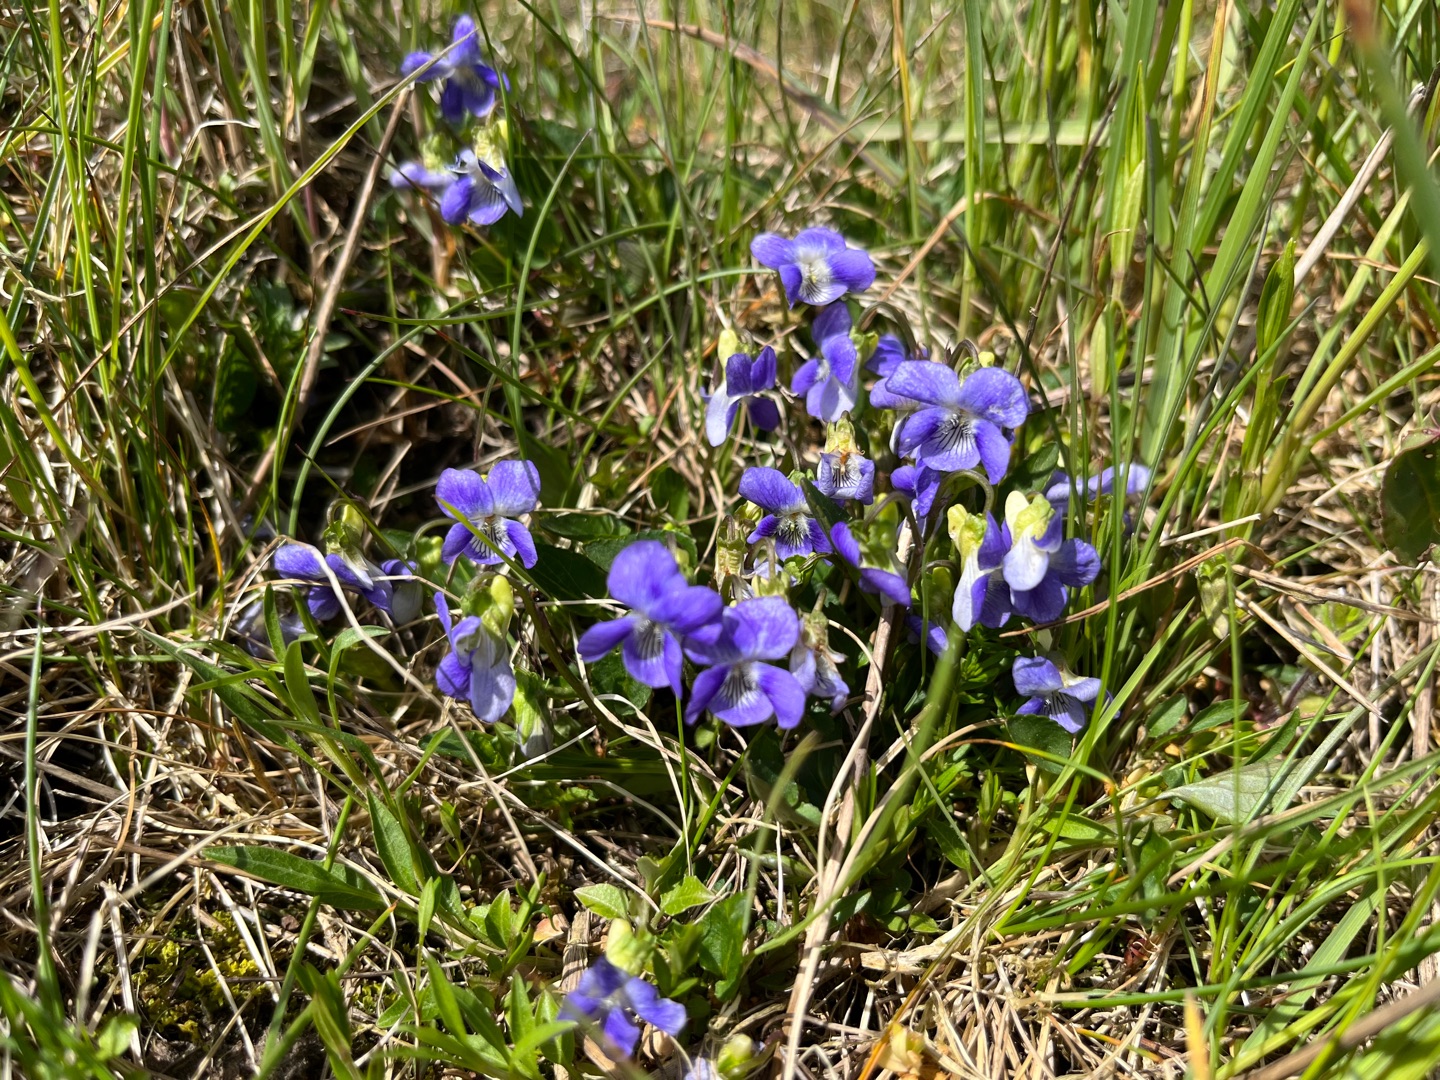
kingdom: Plantae
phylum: Tracheophyta
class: Magnoliopsida
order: Malpighiales
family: Violaceae
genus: Viola
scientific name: Viola canina
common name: Hunde-viol
